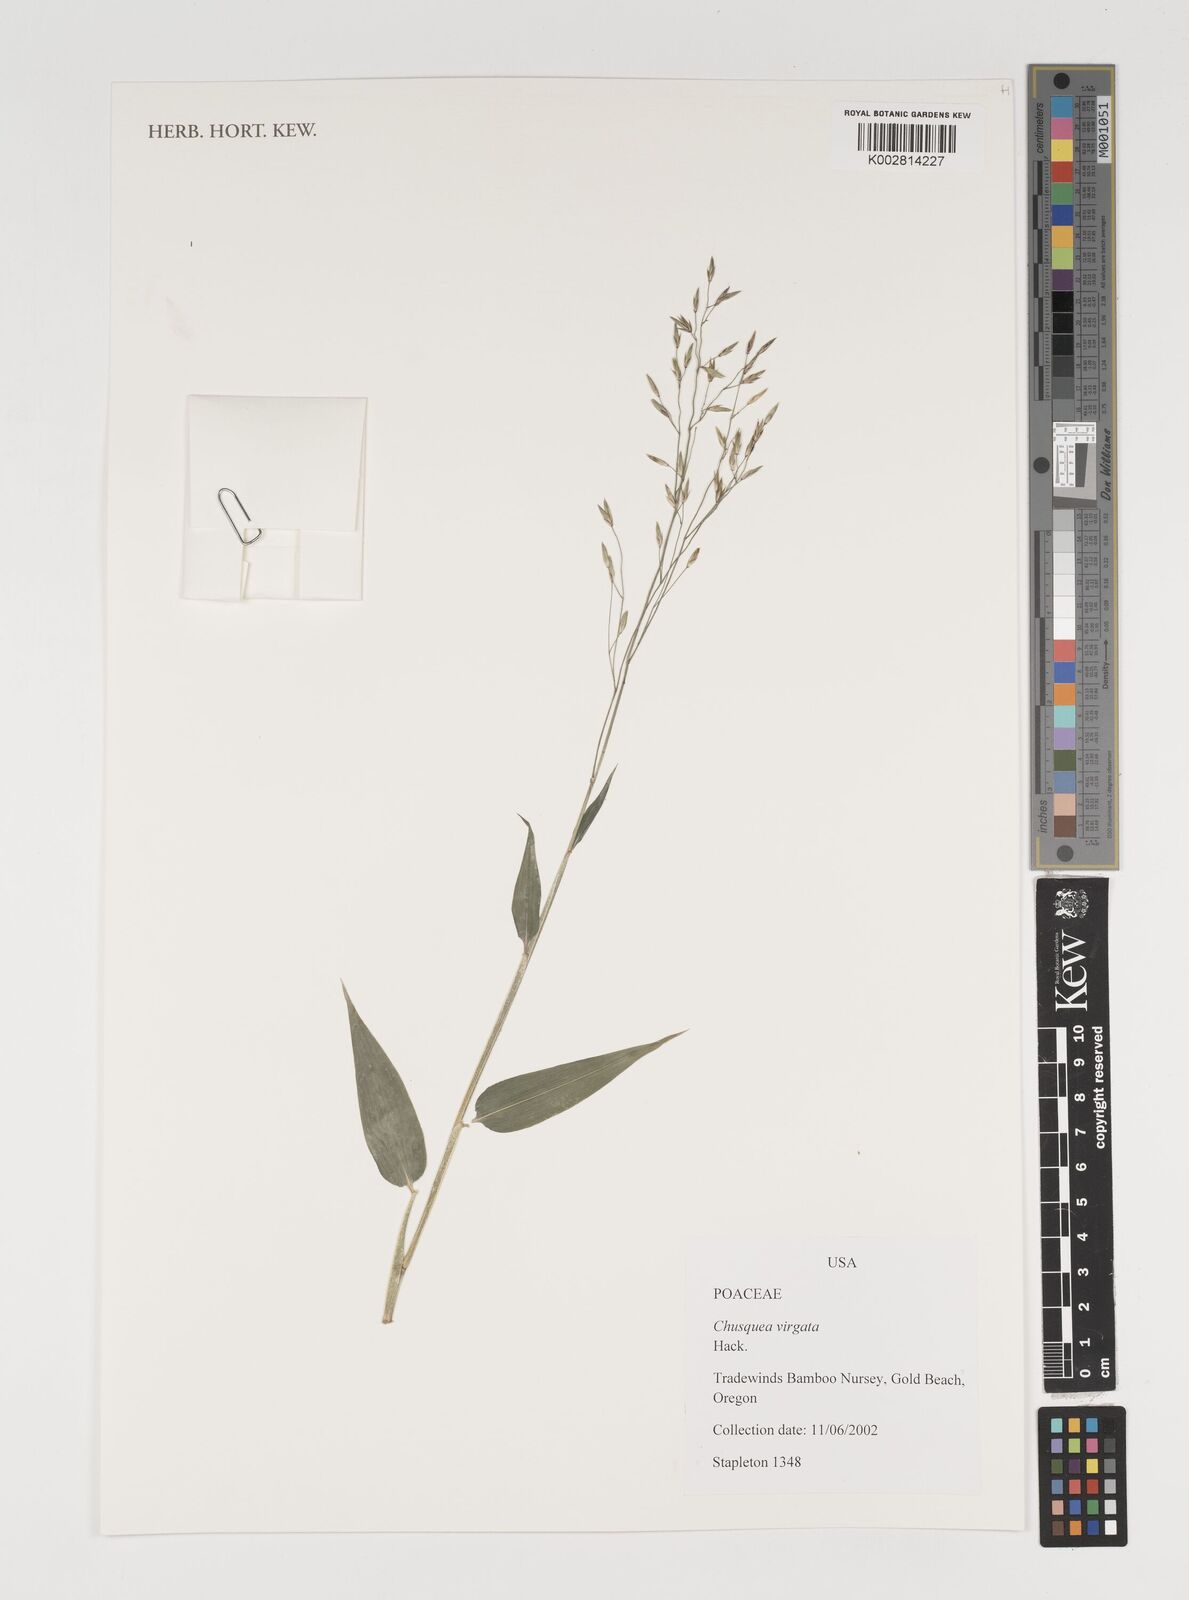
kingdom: Plantae
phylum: Tracheophyta
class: Liliopsida
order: Poales
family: Poaceae
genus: Chusquea
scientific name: Chusquea virgata
